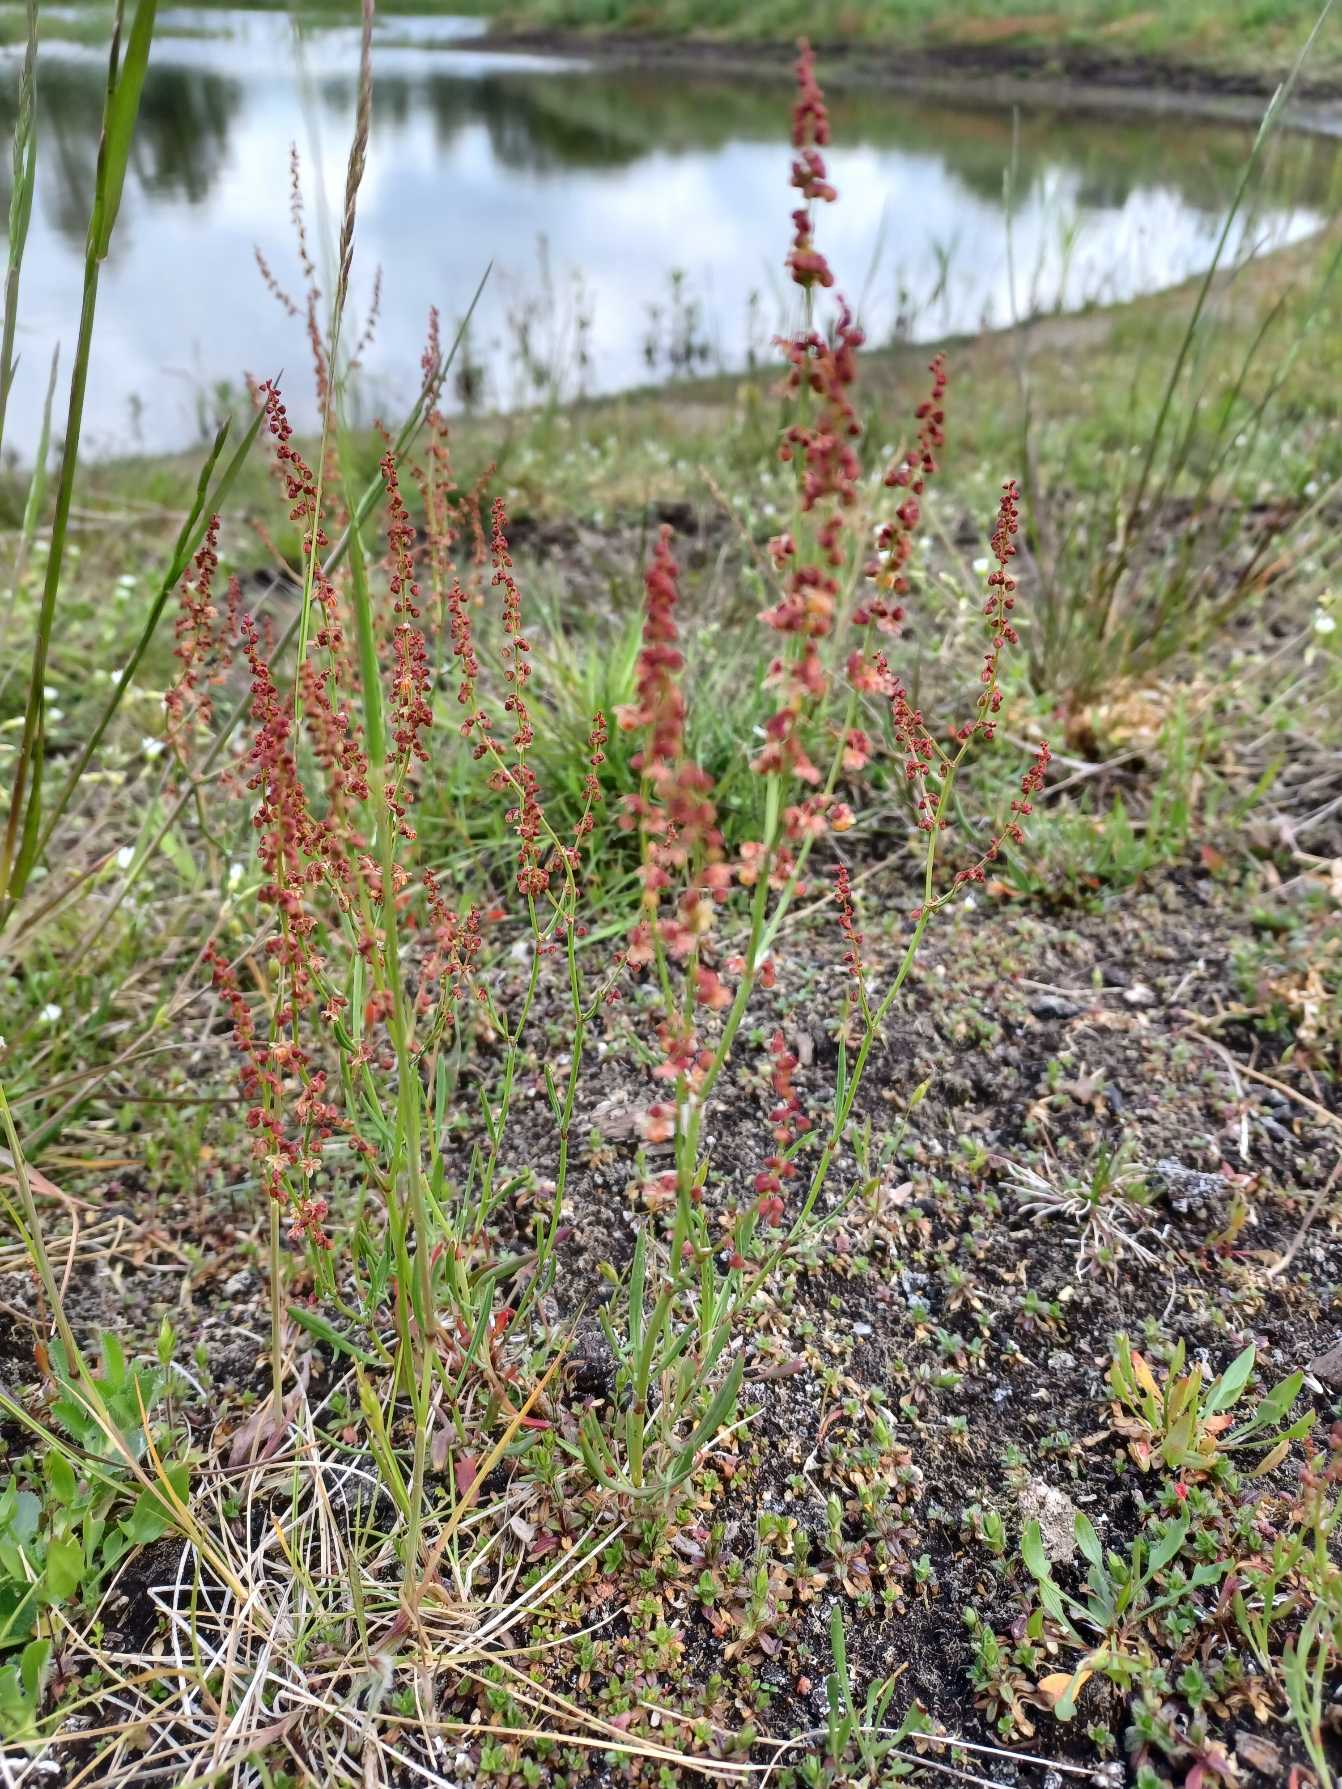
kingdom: Plantae
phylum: Tracheophyta
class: Magnoliopsida
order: Caryophyllales
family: Polygonaceae
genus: Rumex
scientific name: Rumex acetosella
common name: Rødknæ
